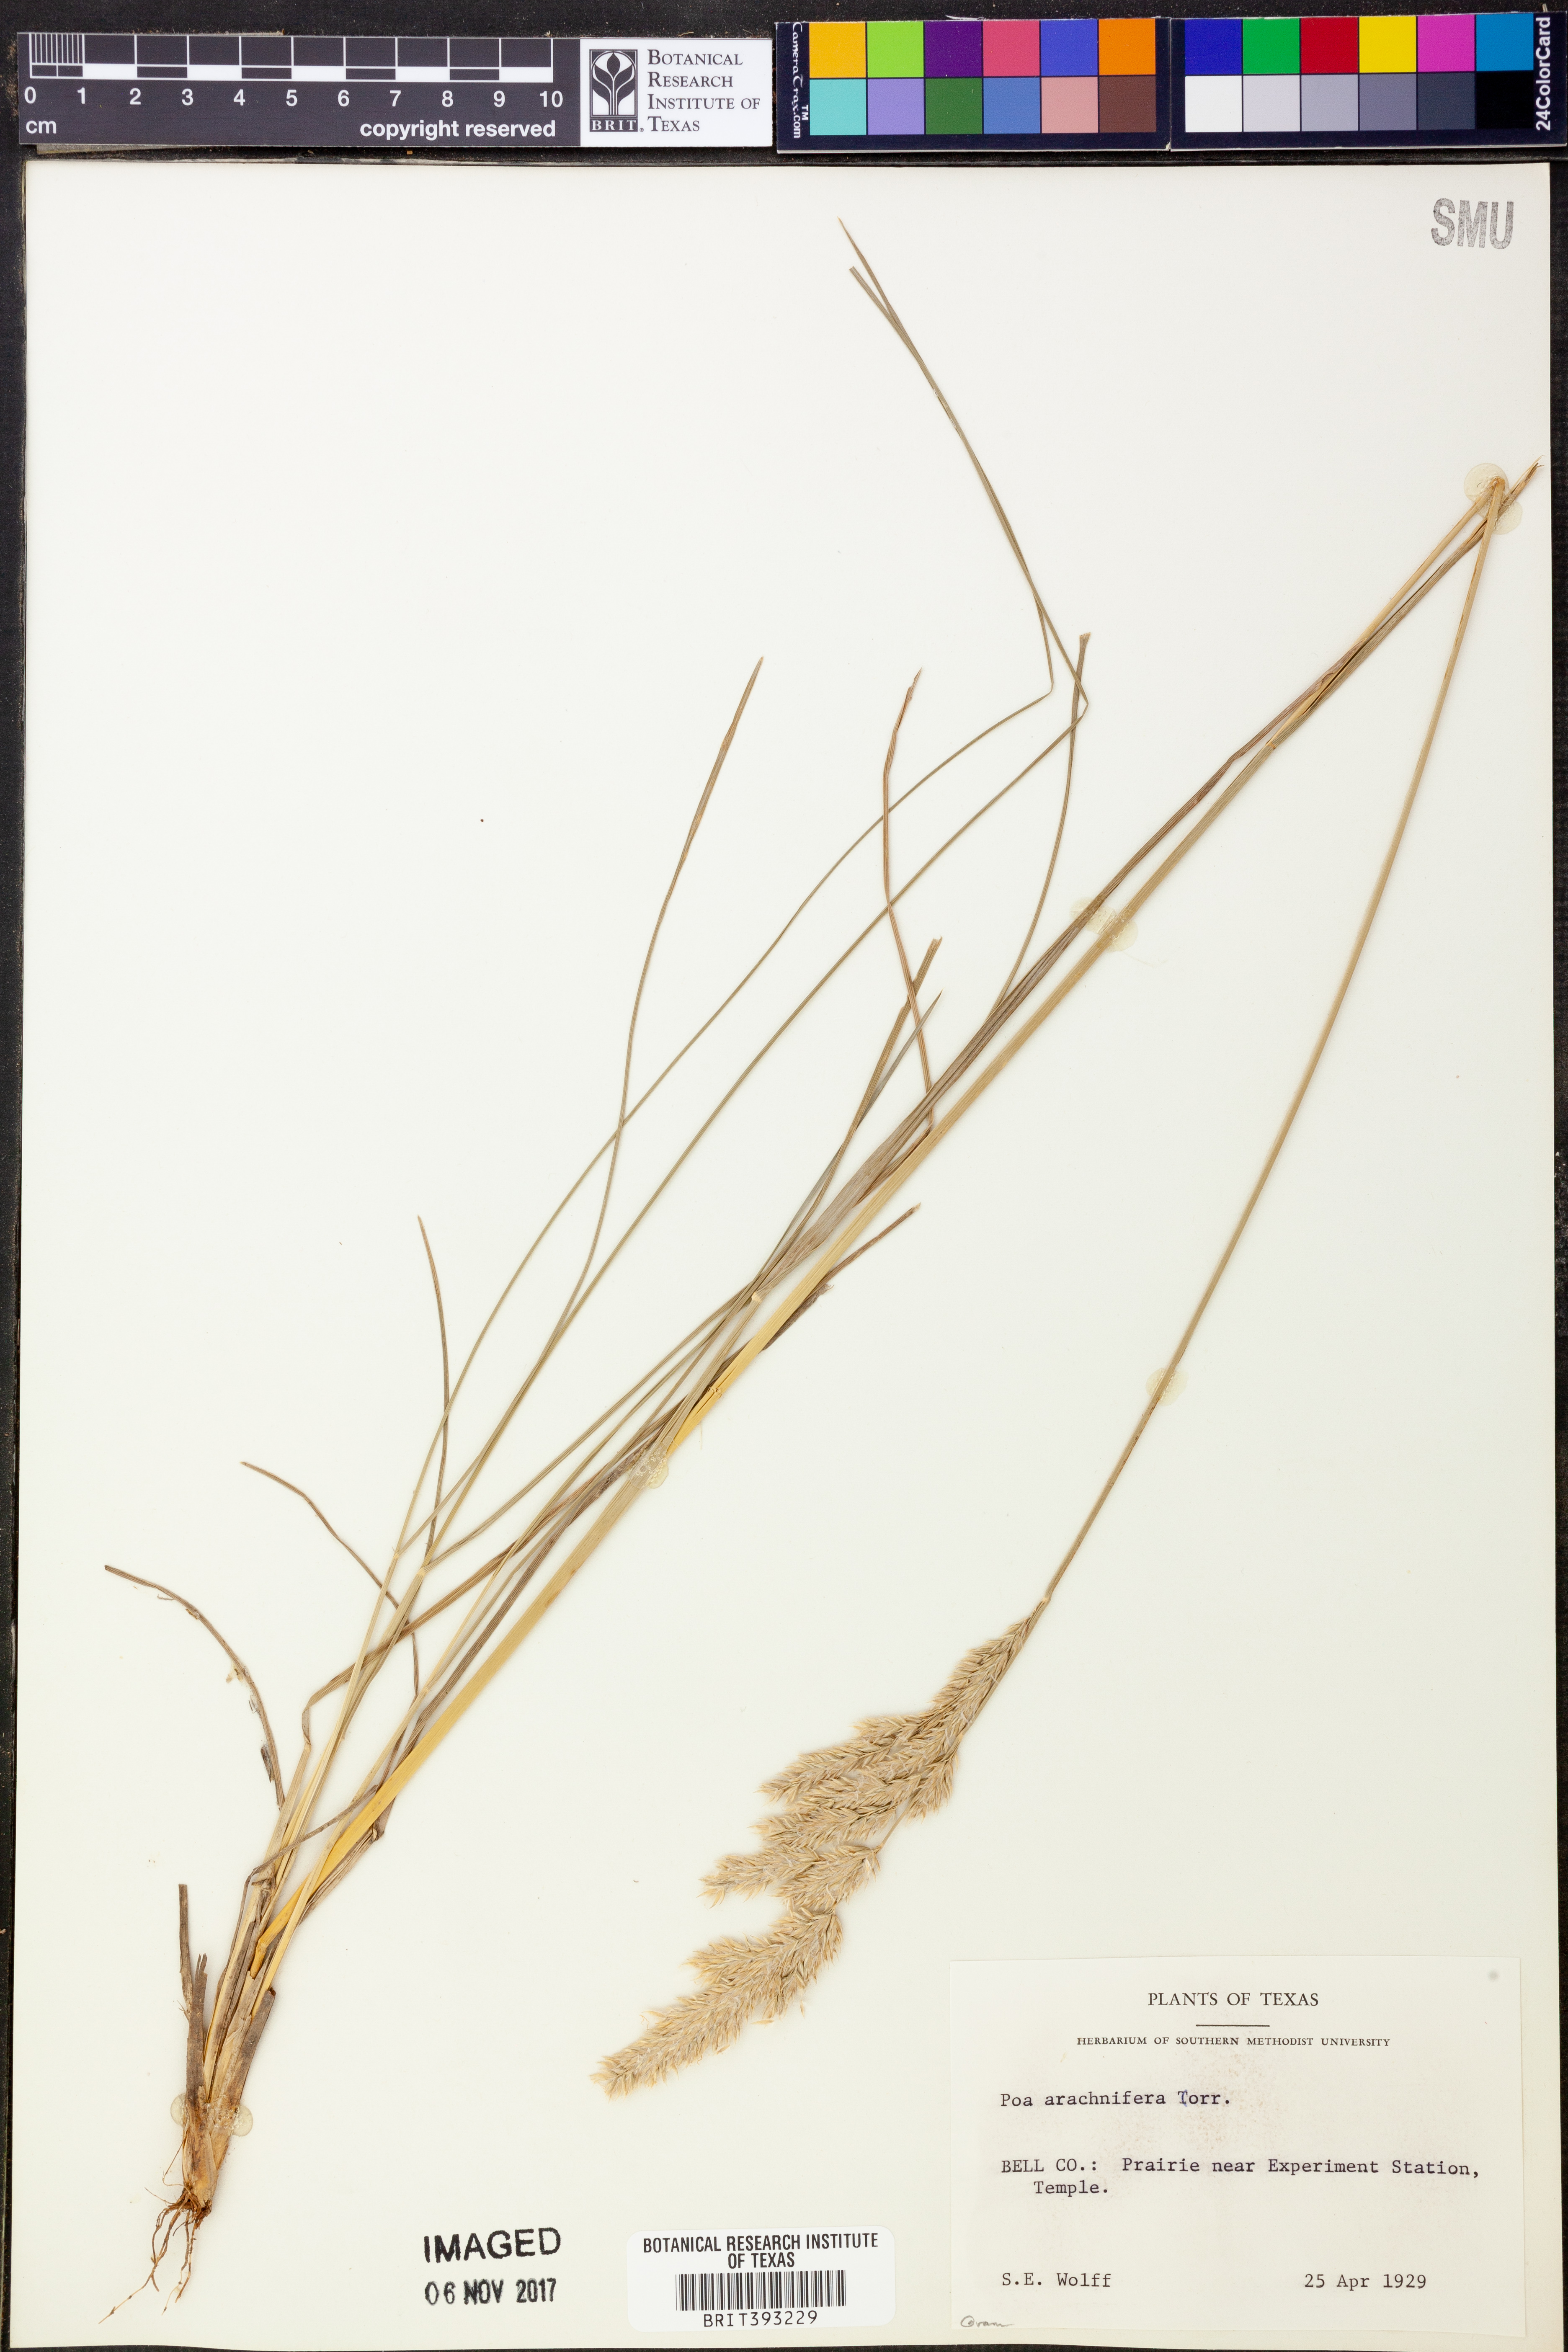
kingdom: Plantae
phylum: Tracheophyta
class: Liliopsida
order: Poales
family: Poaceae
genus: Poa
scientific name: Poa arachnifera
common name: Texas bluegrass
